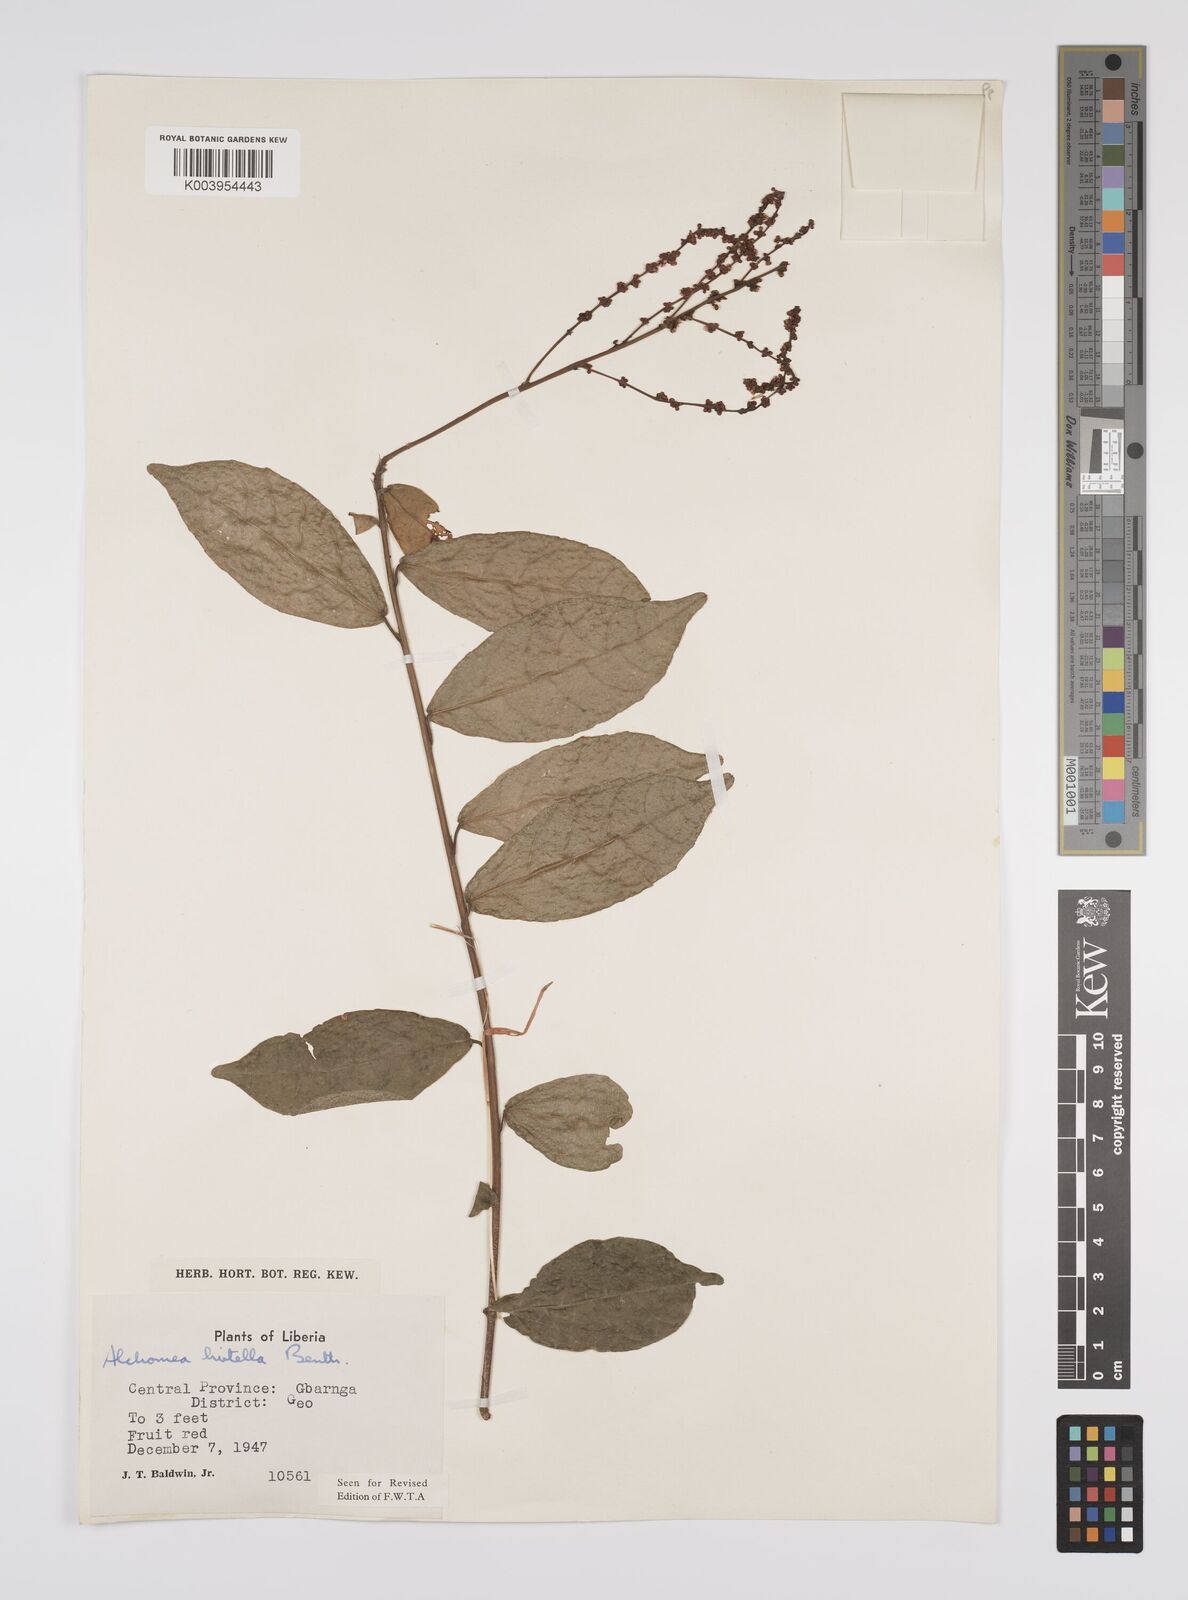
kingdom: Plantae
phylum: Tracheophyta
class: Magnoliopsida
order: Malpighiales
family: Euphorbiaceae
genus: Alchornea
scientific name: Alchornea hirtella
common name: Forest bead-string
